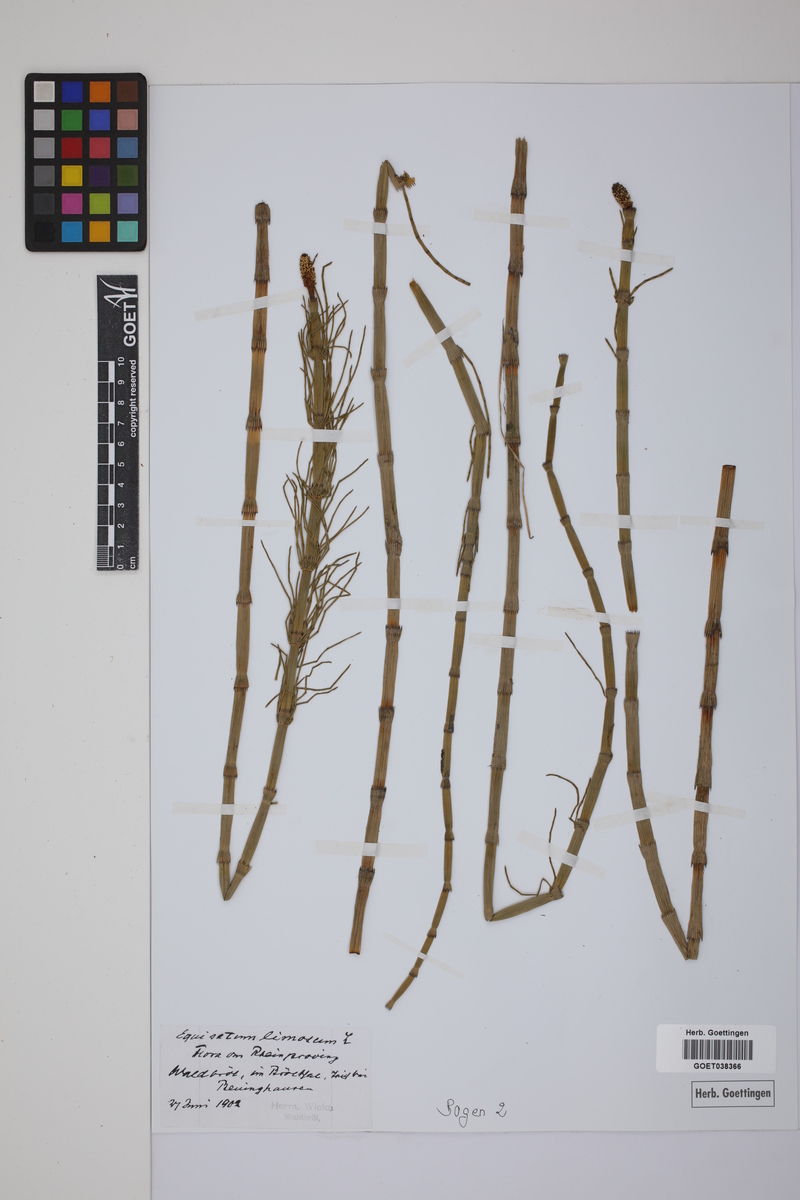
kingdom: Plantae
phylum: Tracheophyta
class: Polypodiopsida
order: Equisetales
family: Equisetaceae
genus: Equisetum
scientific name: Equisetum fluviatile
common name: Water horsetail
